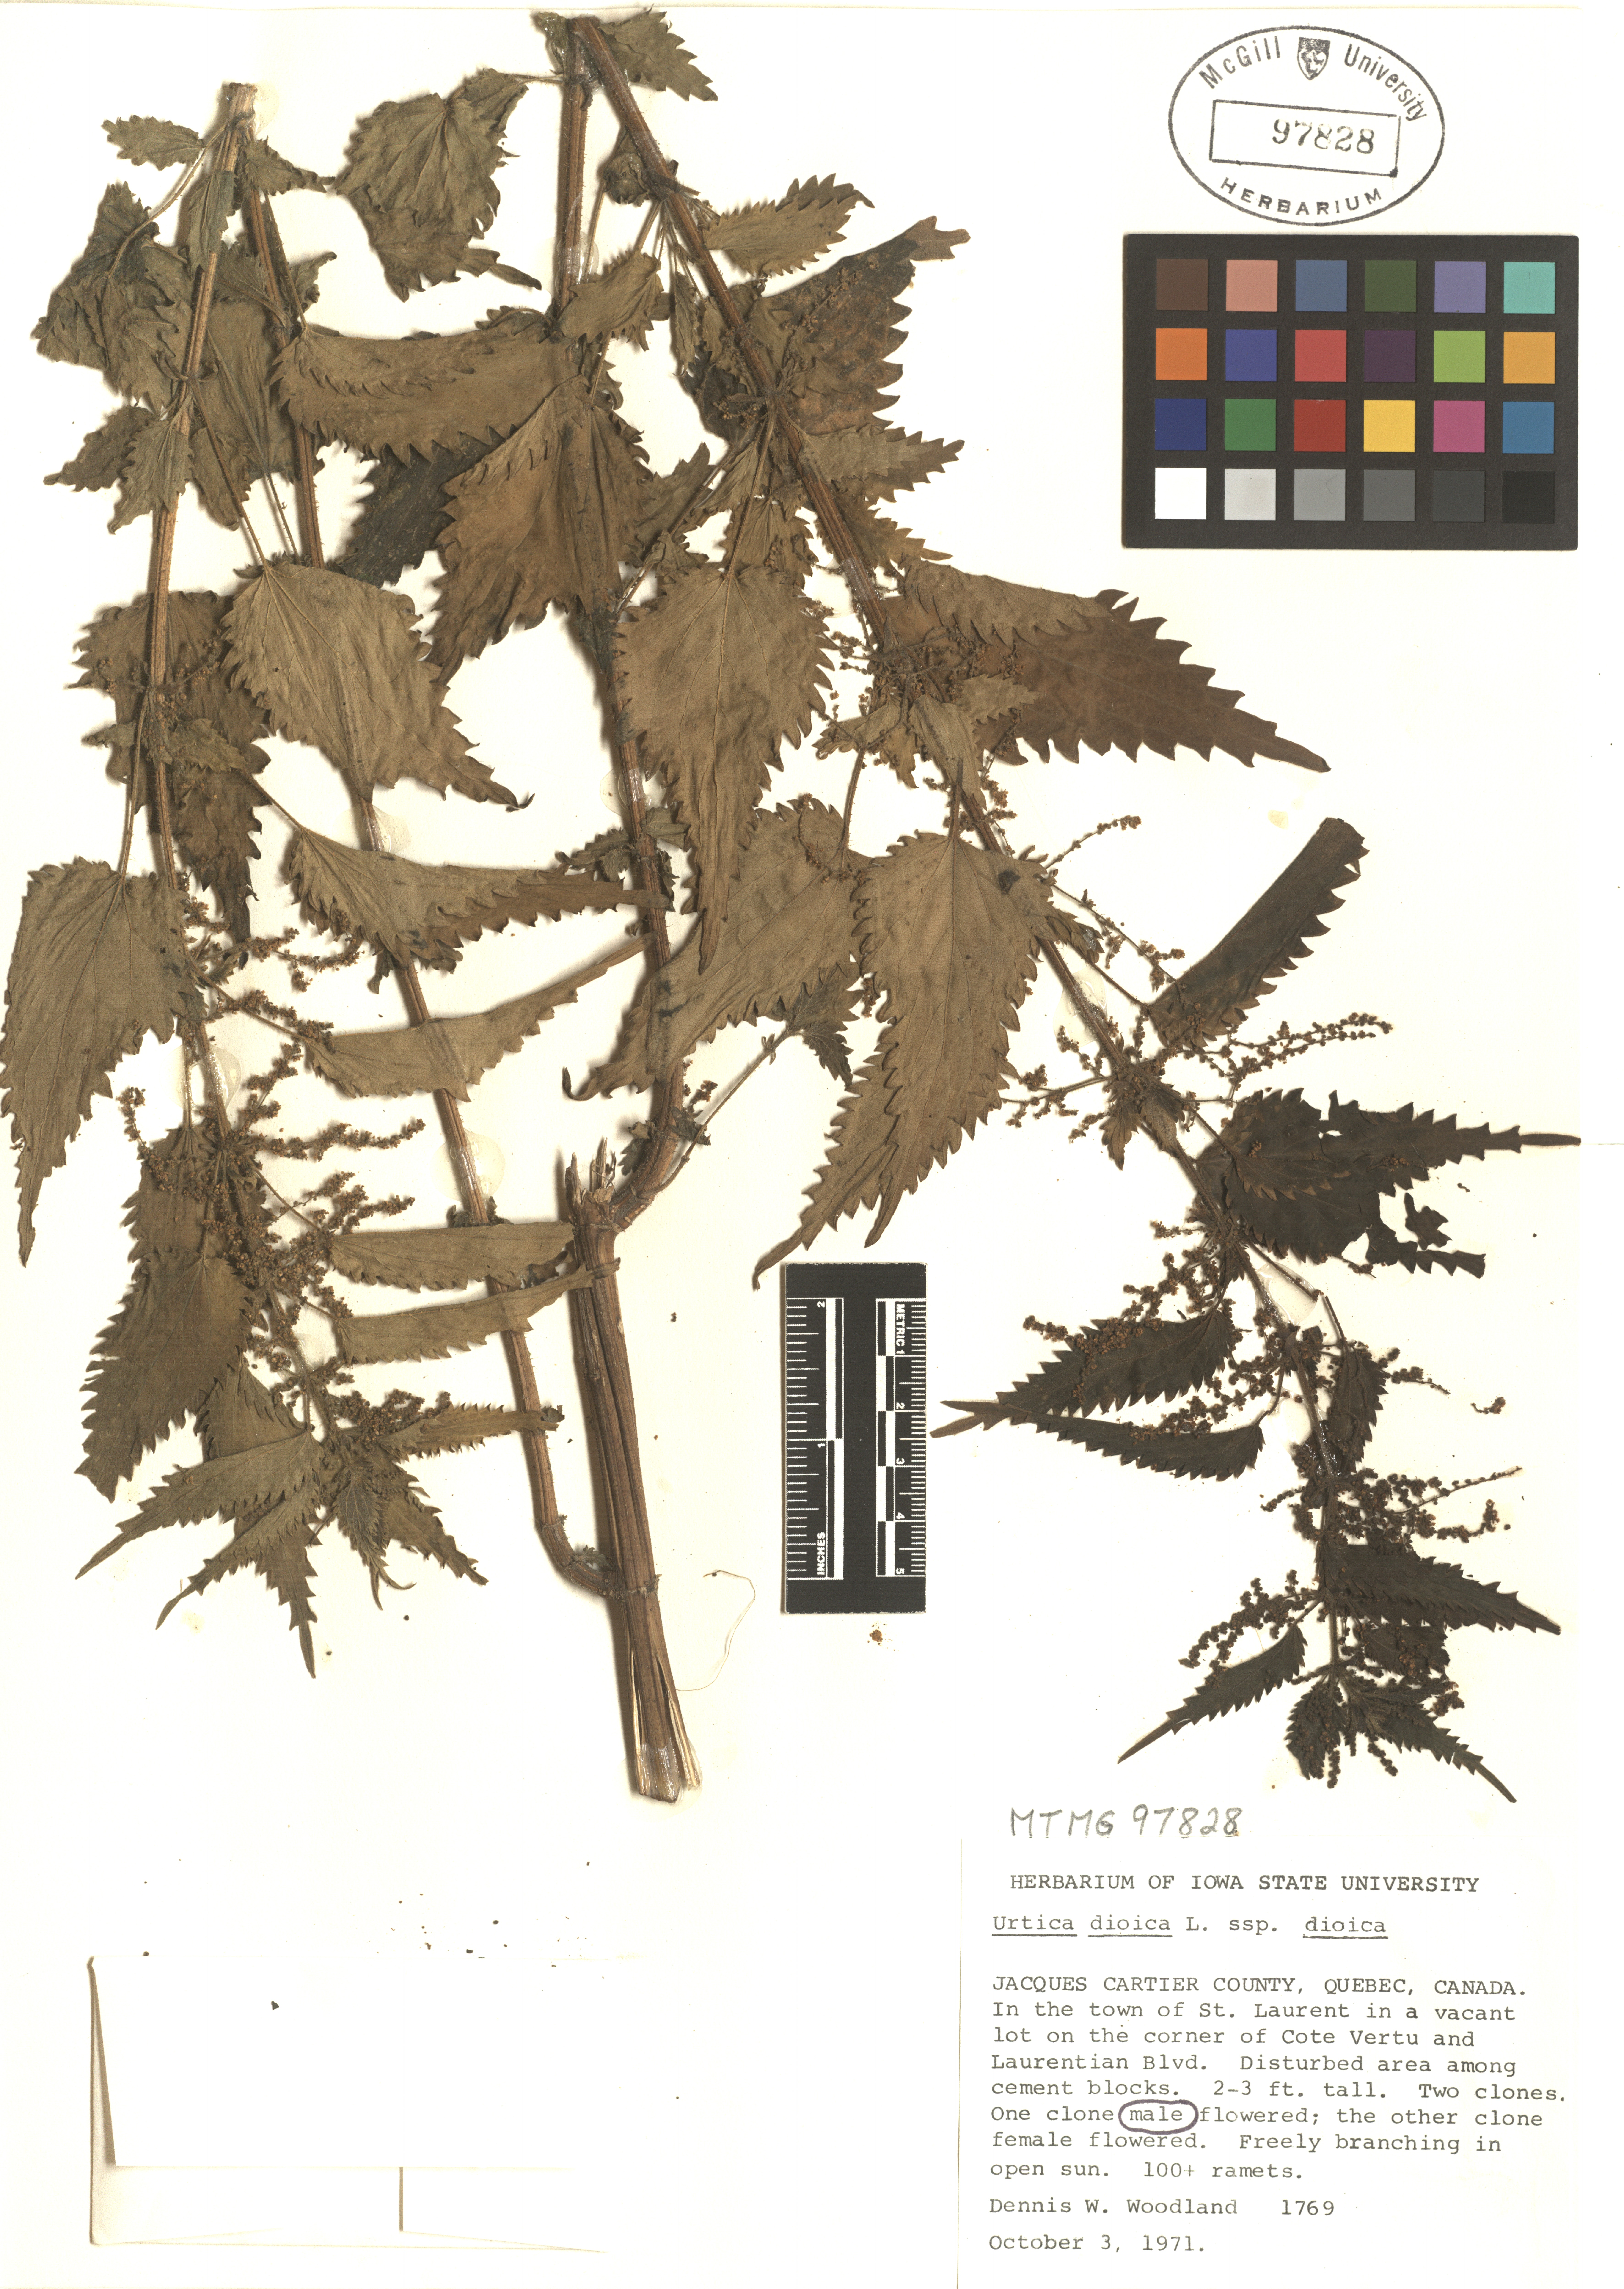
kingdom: Plantae
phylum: Tracheophyta
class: Magnoliopsida
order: Rosales
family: Urticaceae
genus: Urtica
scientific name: Urtica dioica
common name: Common nettle
